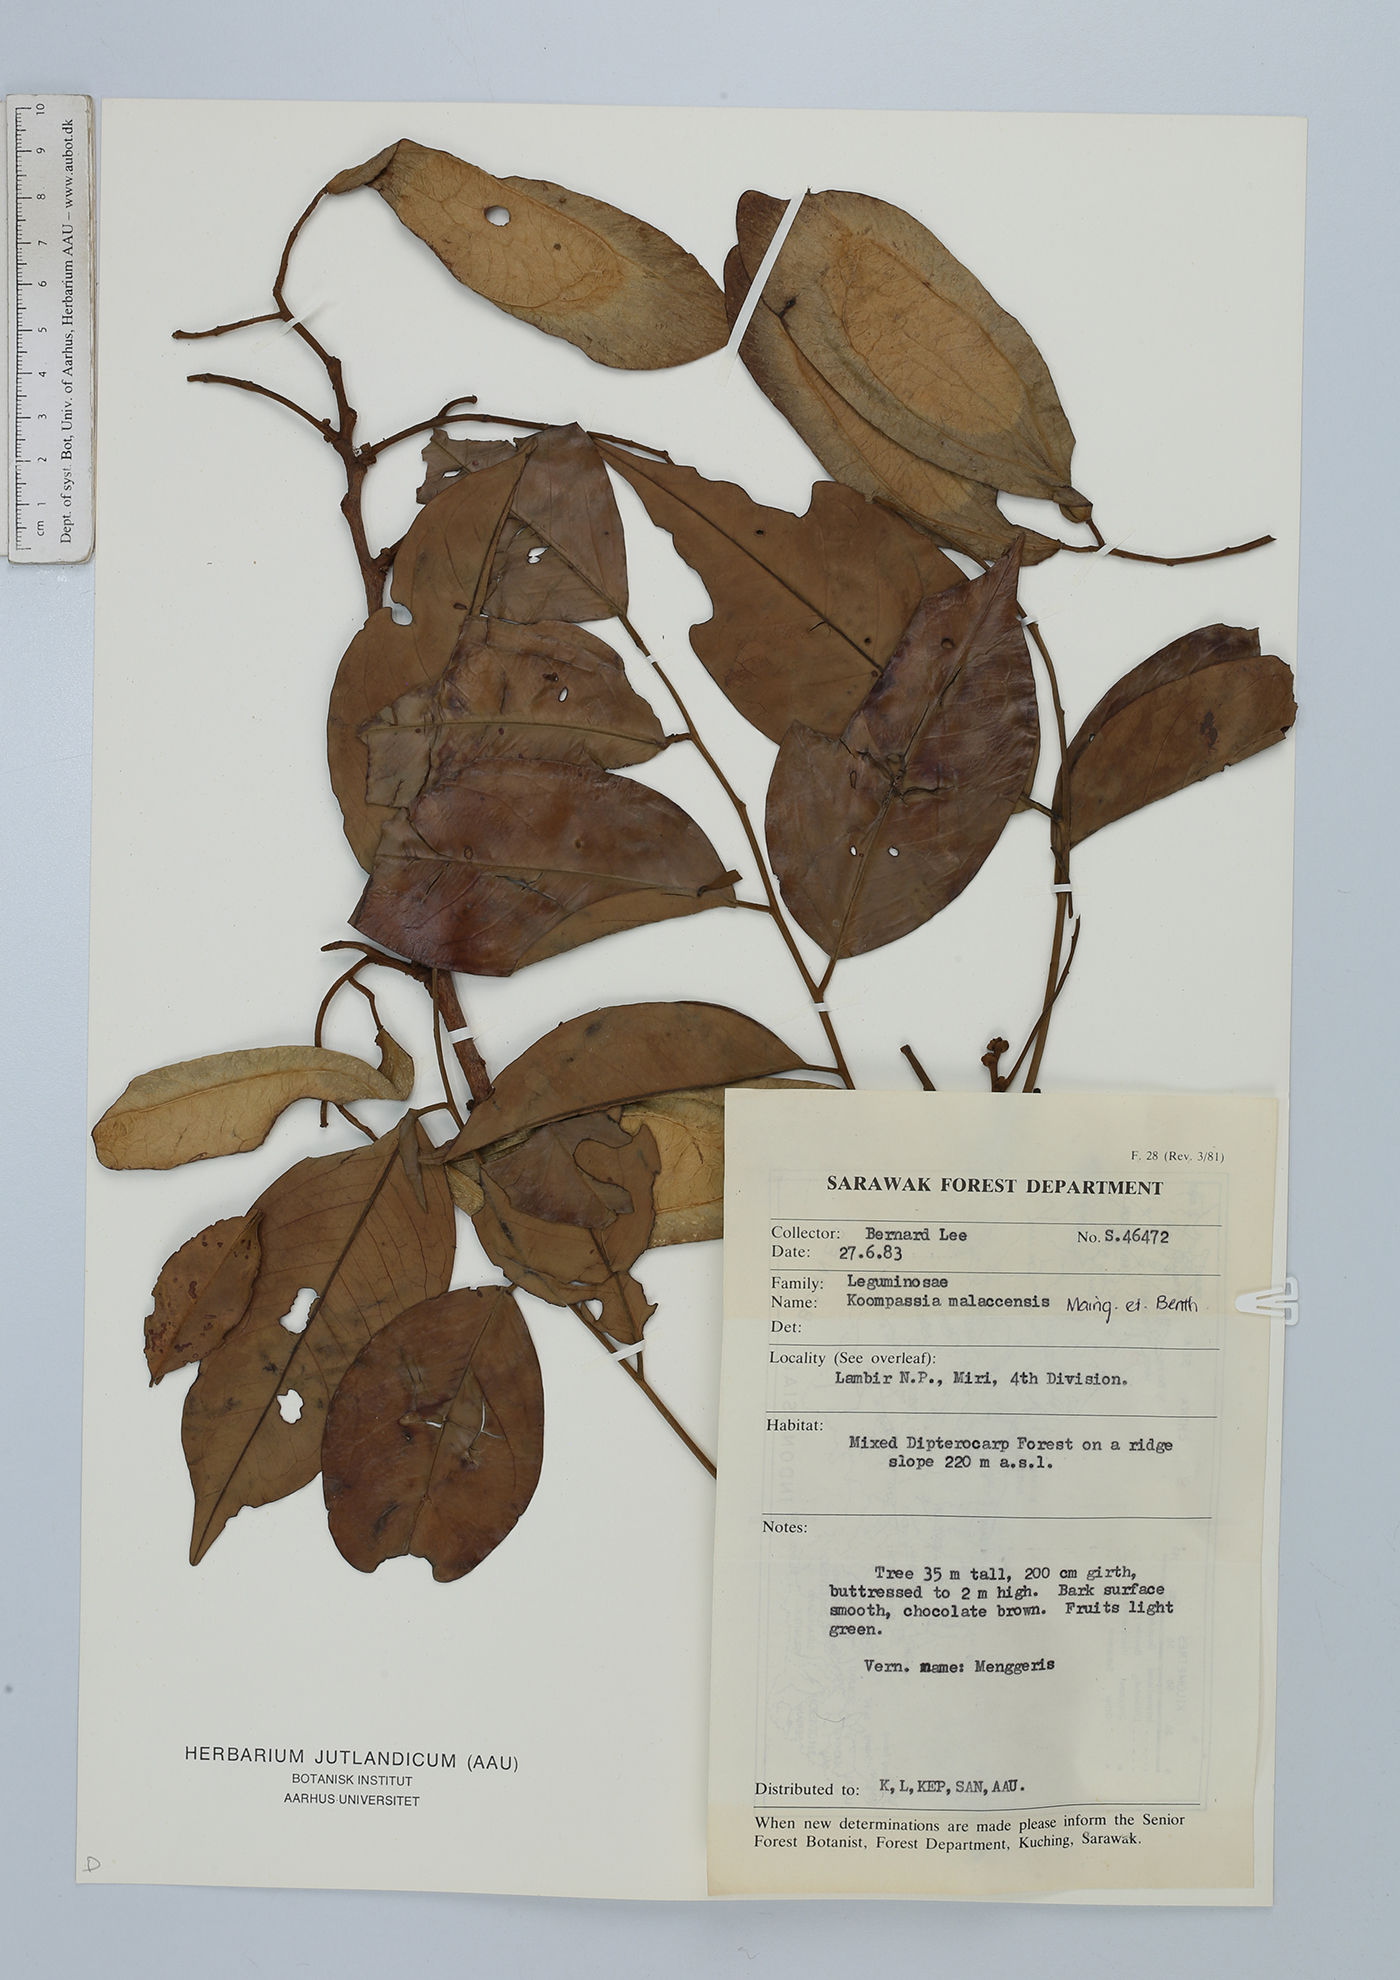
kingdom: Plantae
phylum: Tracheophyta
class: Magnoliopsida
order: Fabales
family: Fabaceae
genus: Koompassia
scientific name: Koompassia malaccensis
